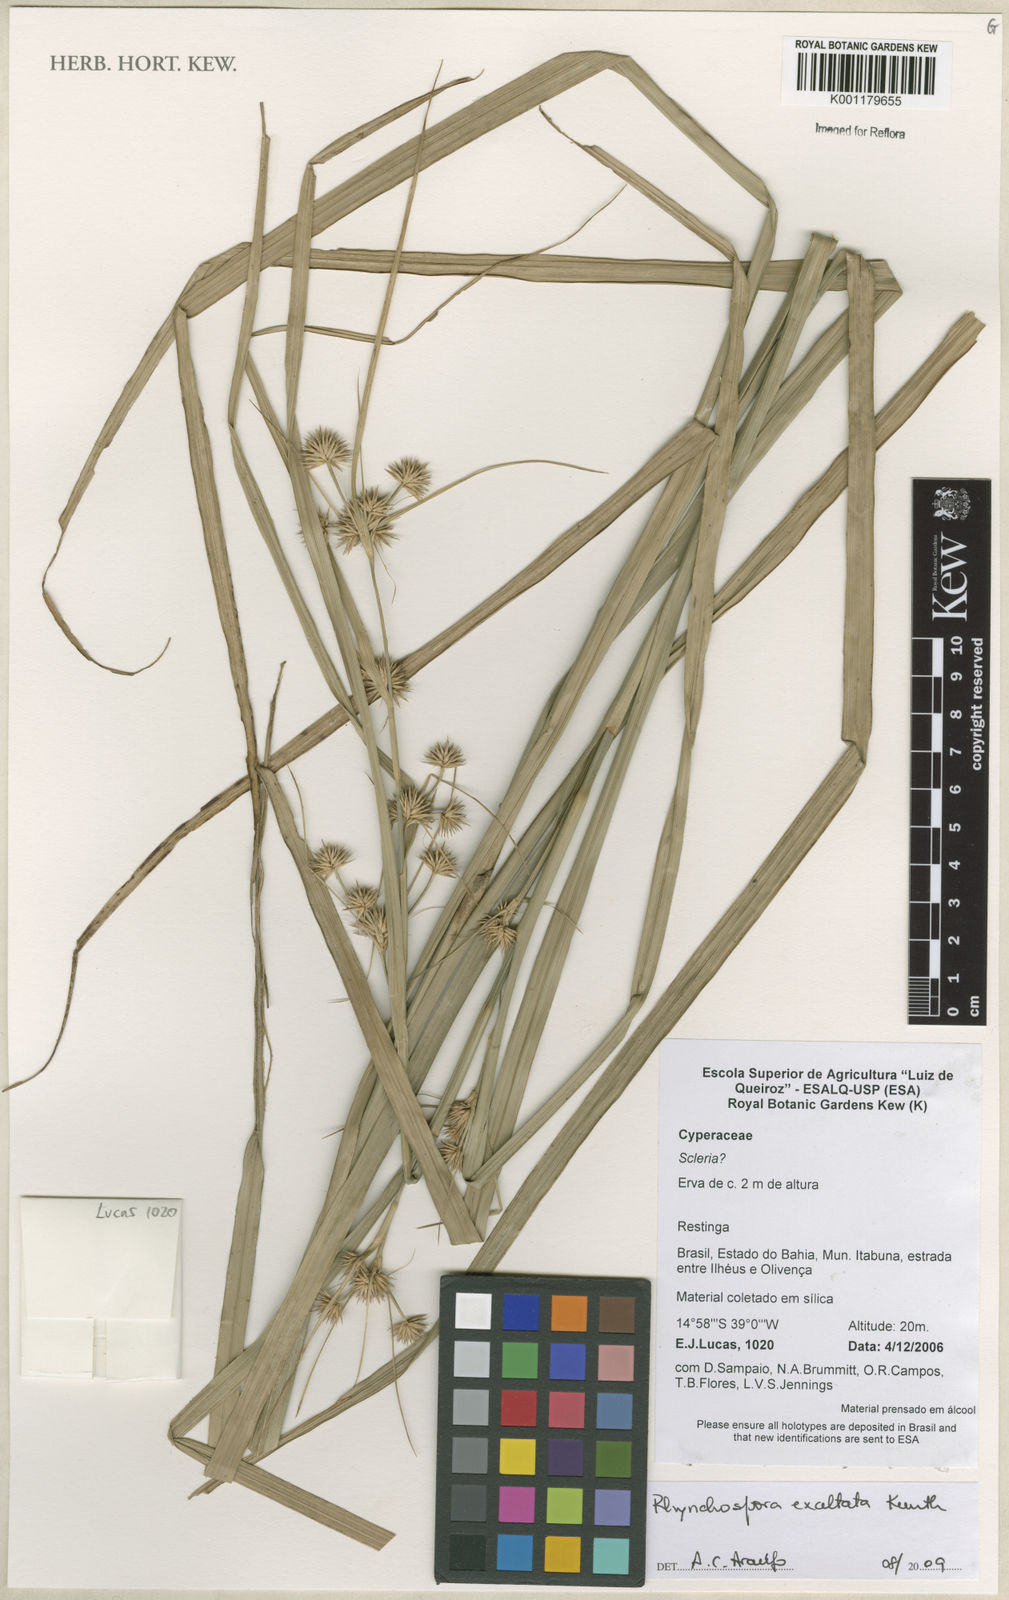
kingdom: Plantae
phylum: Tracheophyta
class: Liliopsida
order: Poales
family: Cyperaceae
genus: Rhynchospora
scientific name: Rhynchospora exaltata
